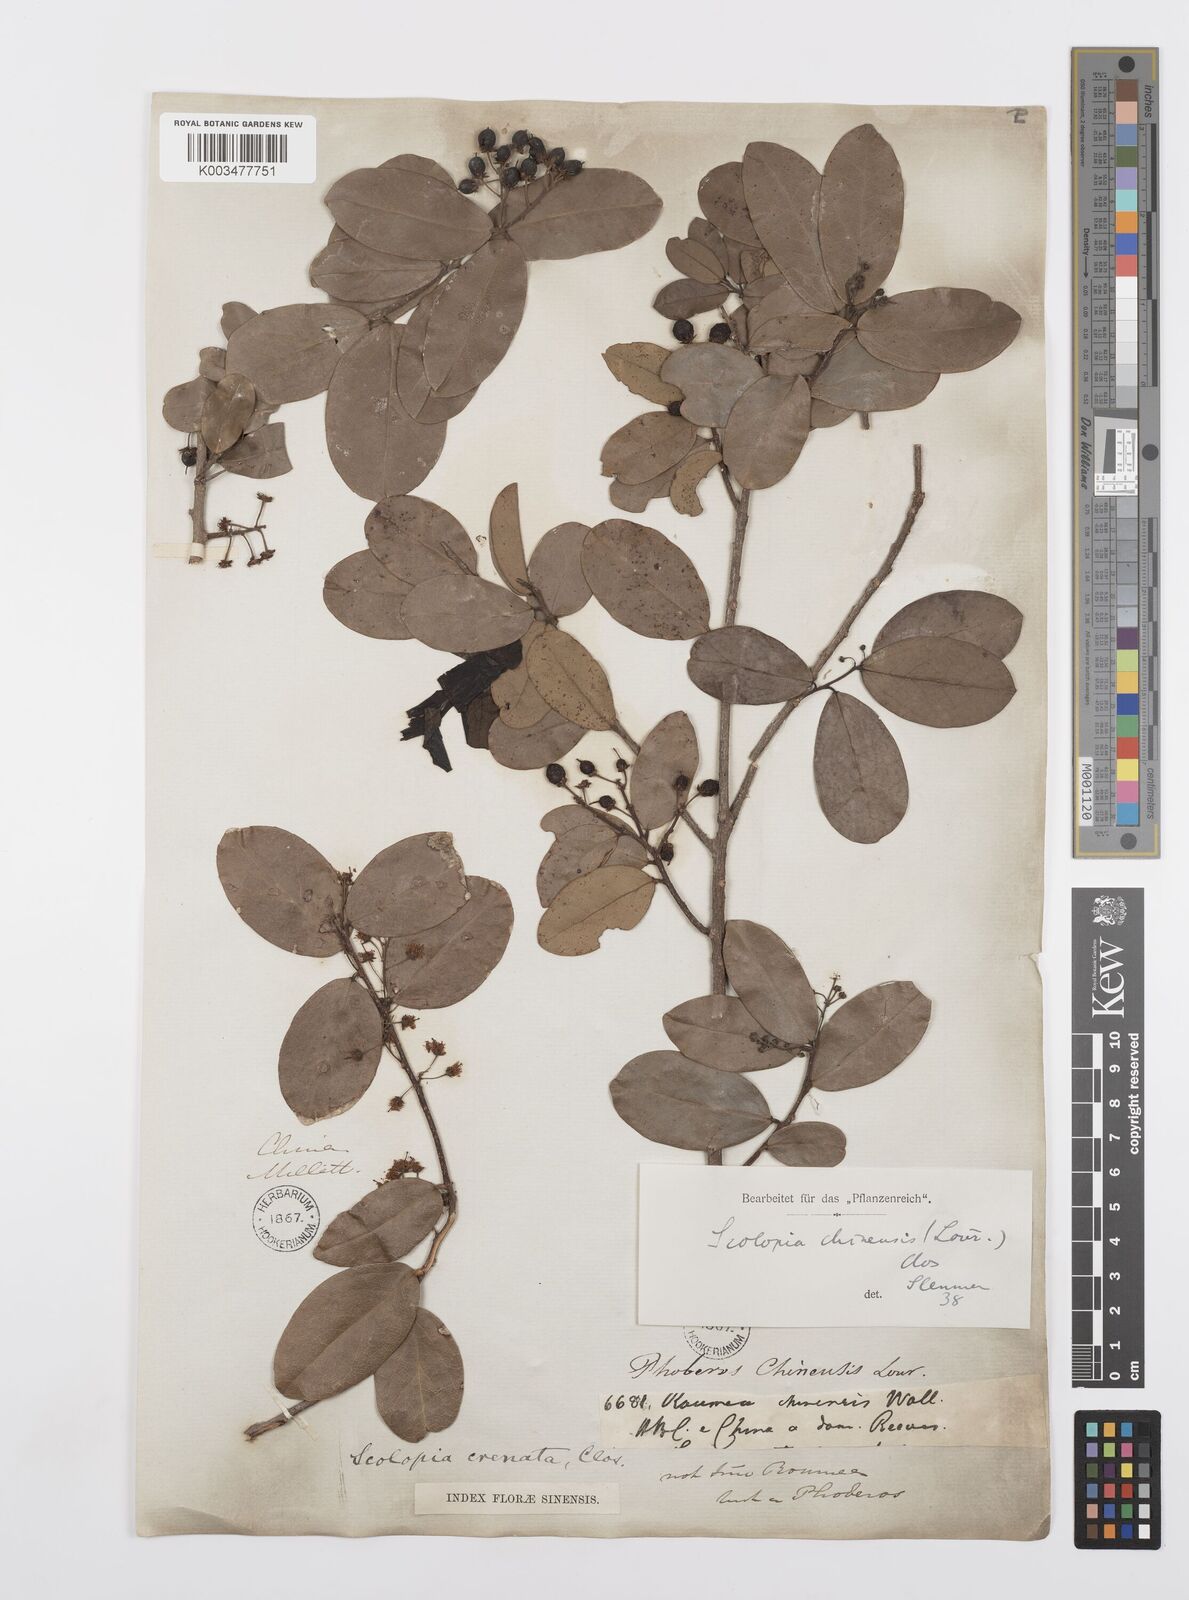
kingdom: Plantae
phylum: Tracheophyta
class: Magnoliopsida
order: Malpighiales
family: Salicaceae
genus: Scolopia
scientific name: Scolopia chinensis
